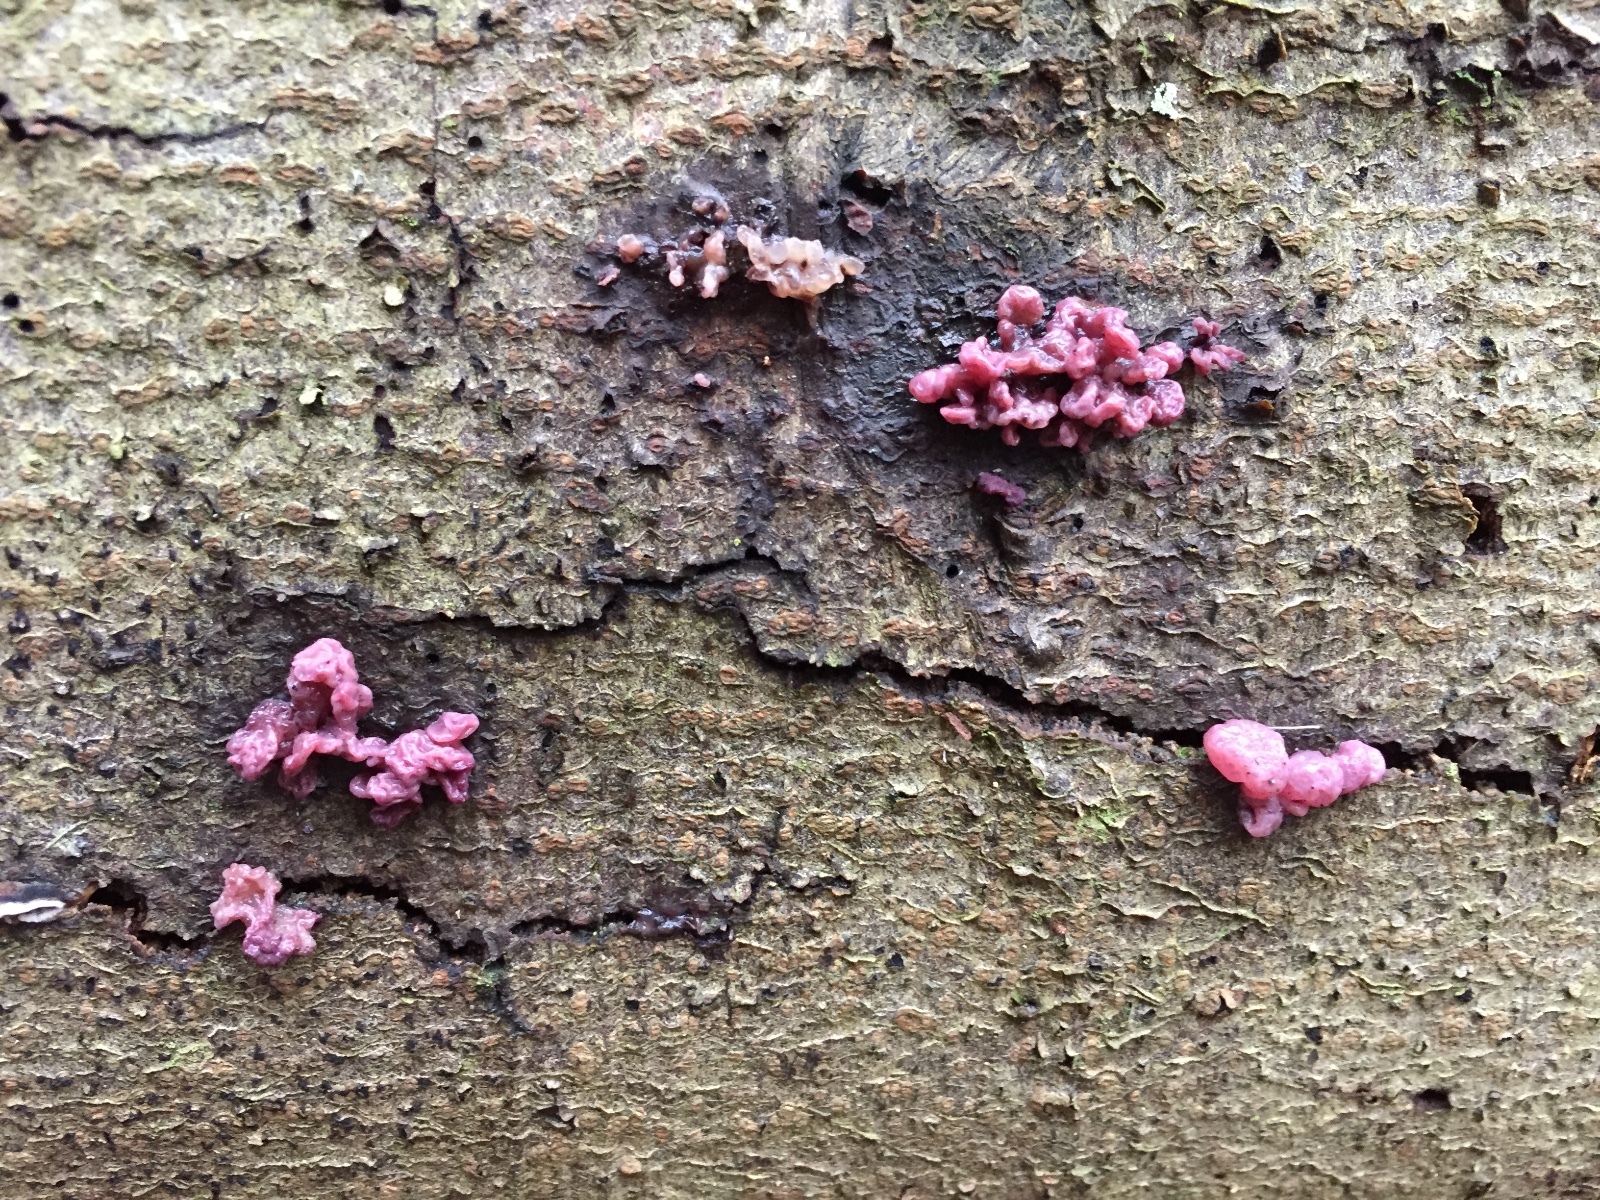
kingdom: Fungi
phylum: Ascomycota
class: Leotiomycetes
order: Helotiales
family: Gelatinodiscaceae
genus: Ascocoryne
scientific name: Ascocoryne sarcoides
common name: rødlilla sejskive
